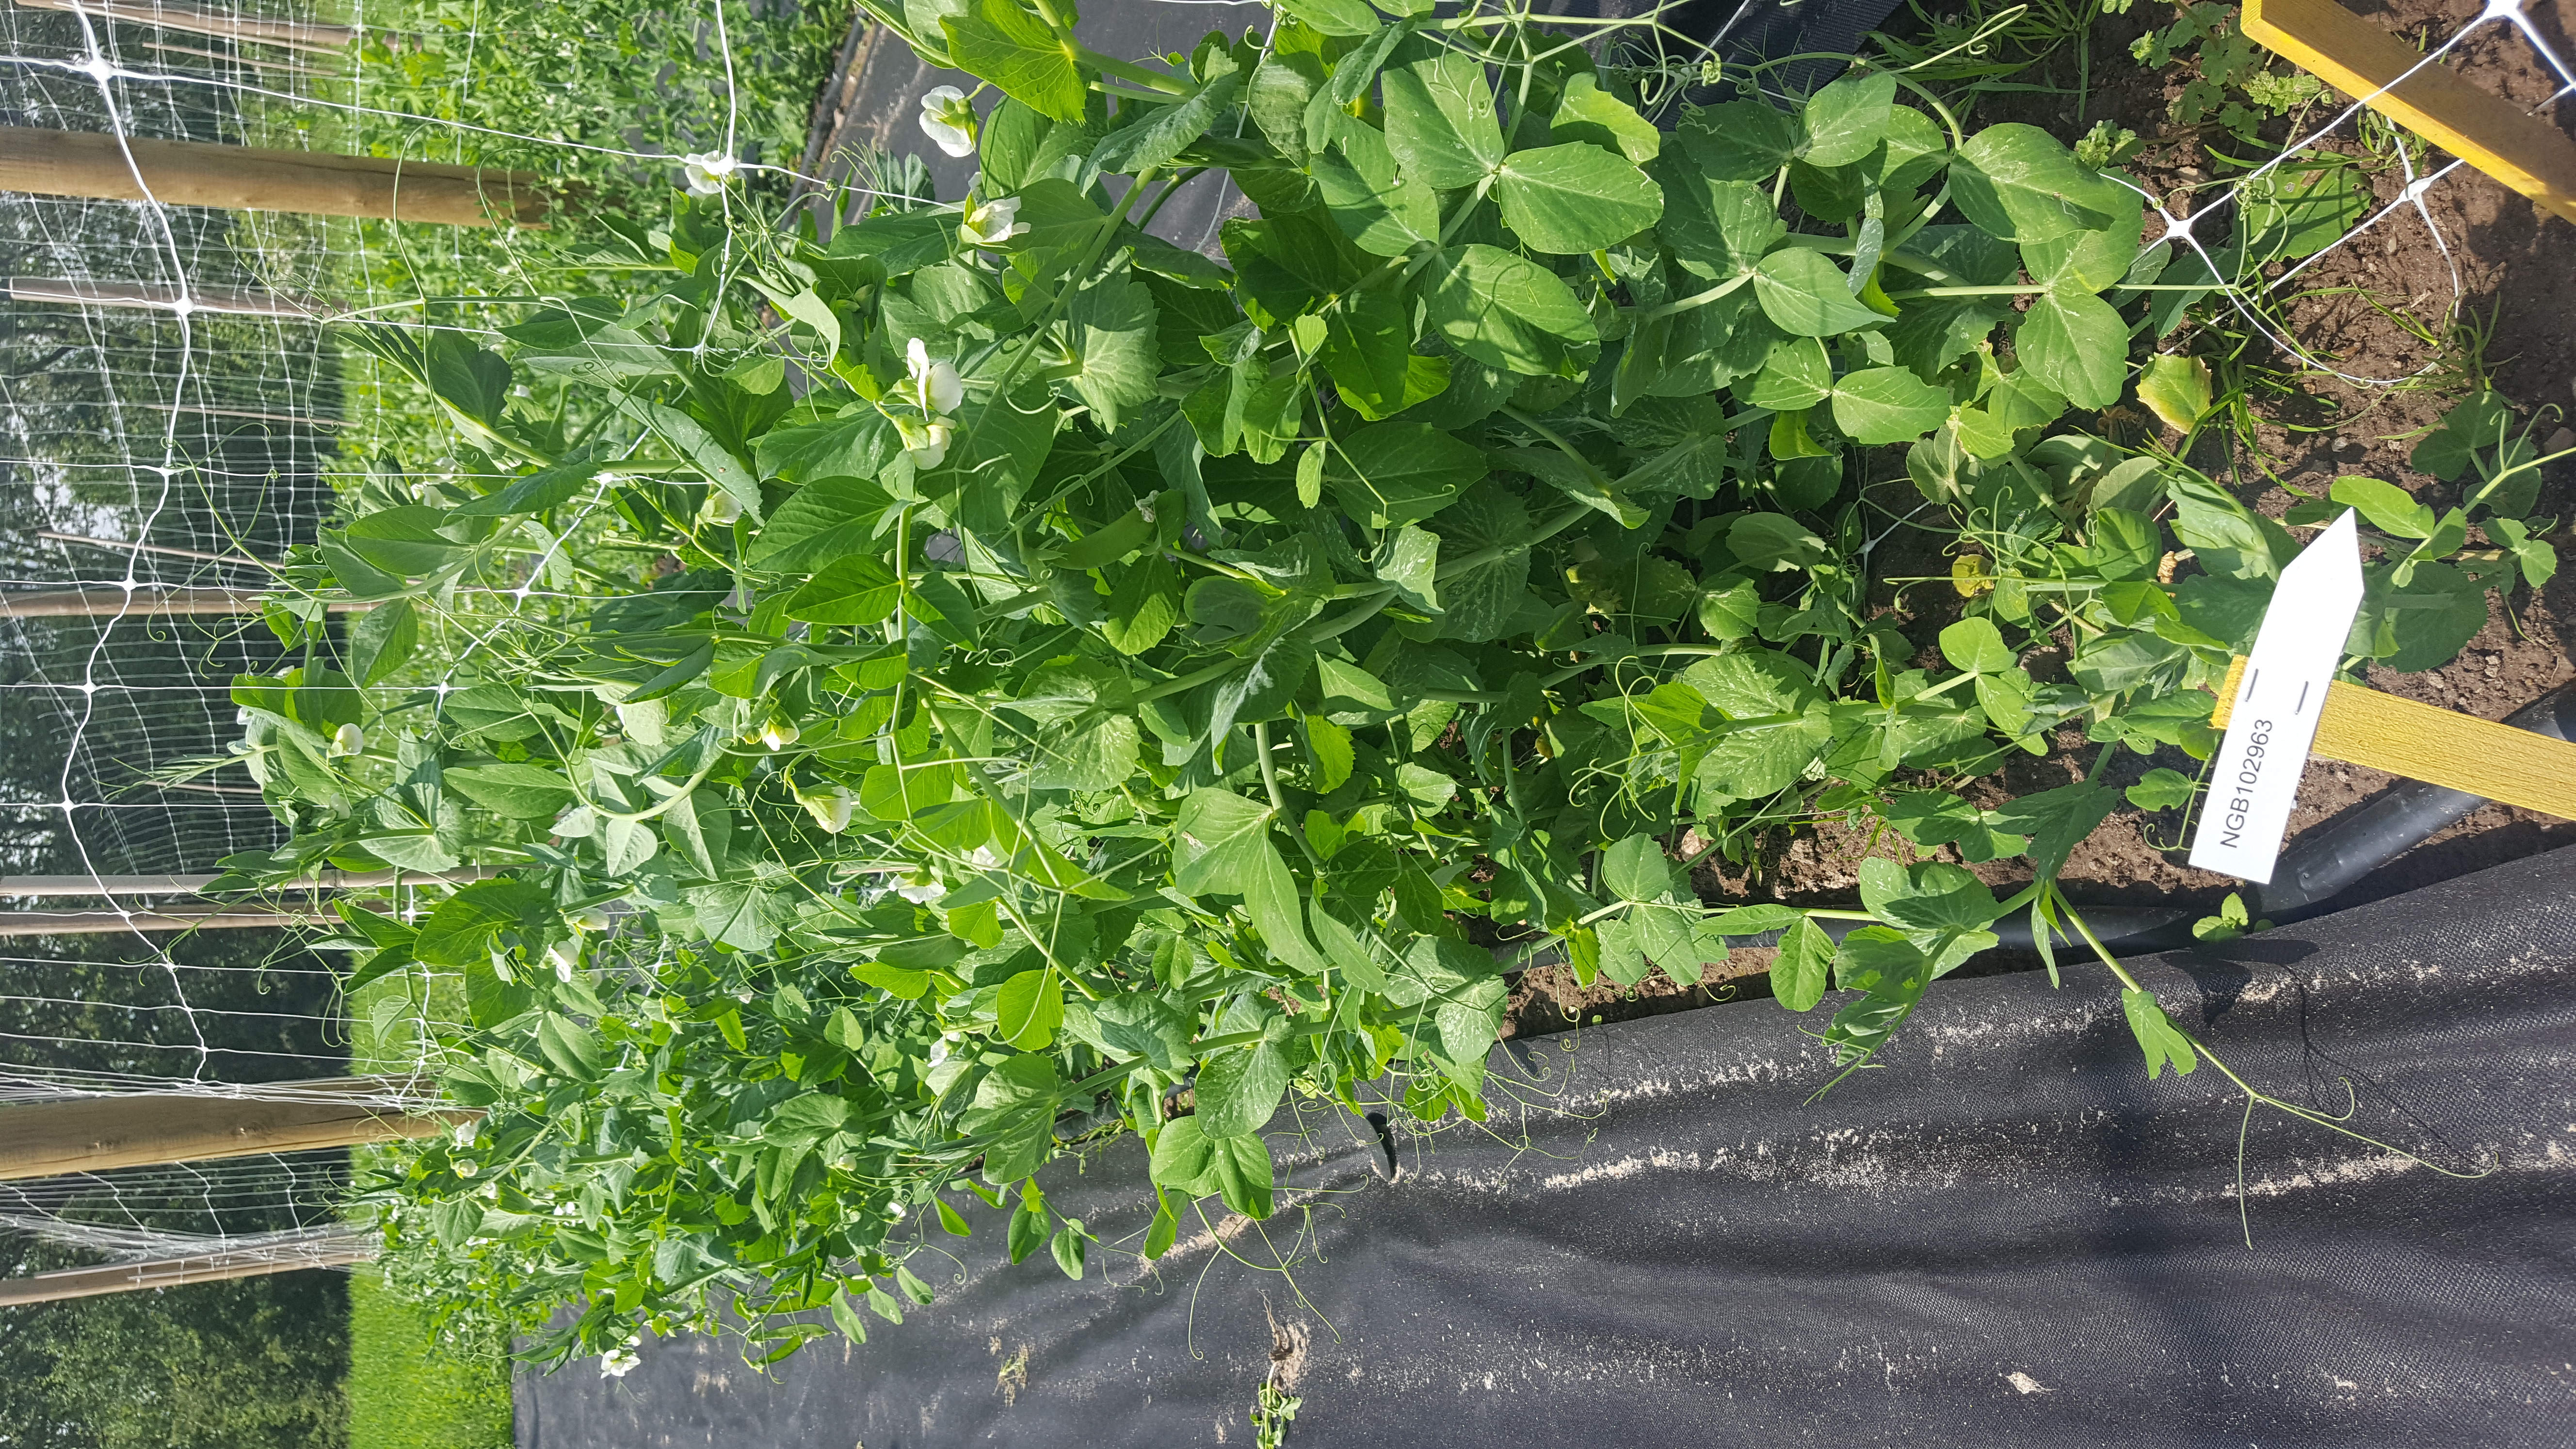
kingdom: Plantae
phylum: Tracheophyta
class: Magnoliopsida
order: Fabales
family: Fabaceae
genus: Lathyrus
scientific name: Lathyrus oleraceus
